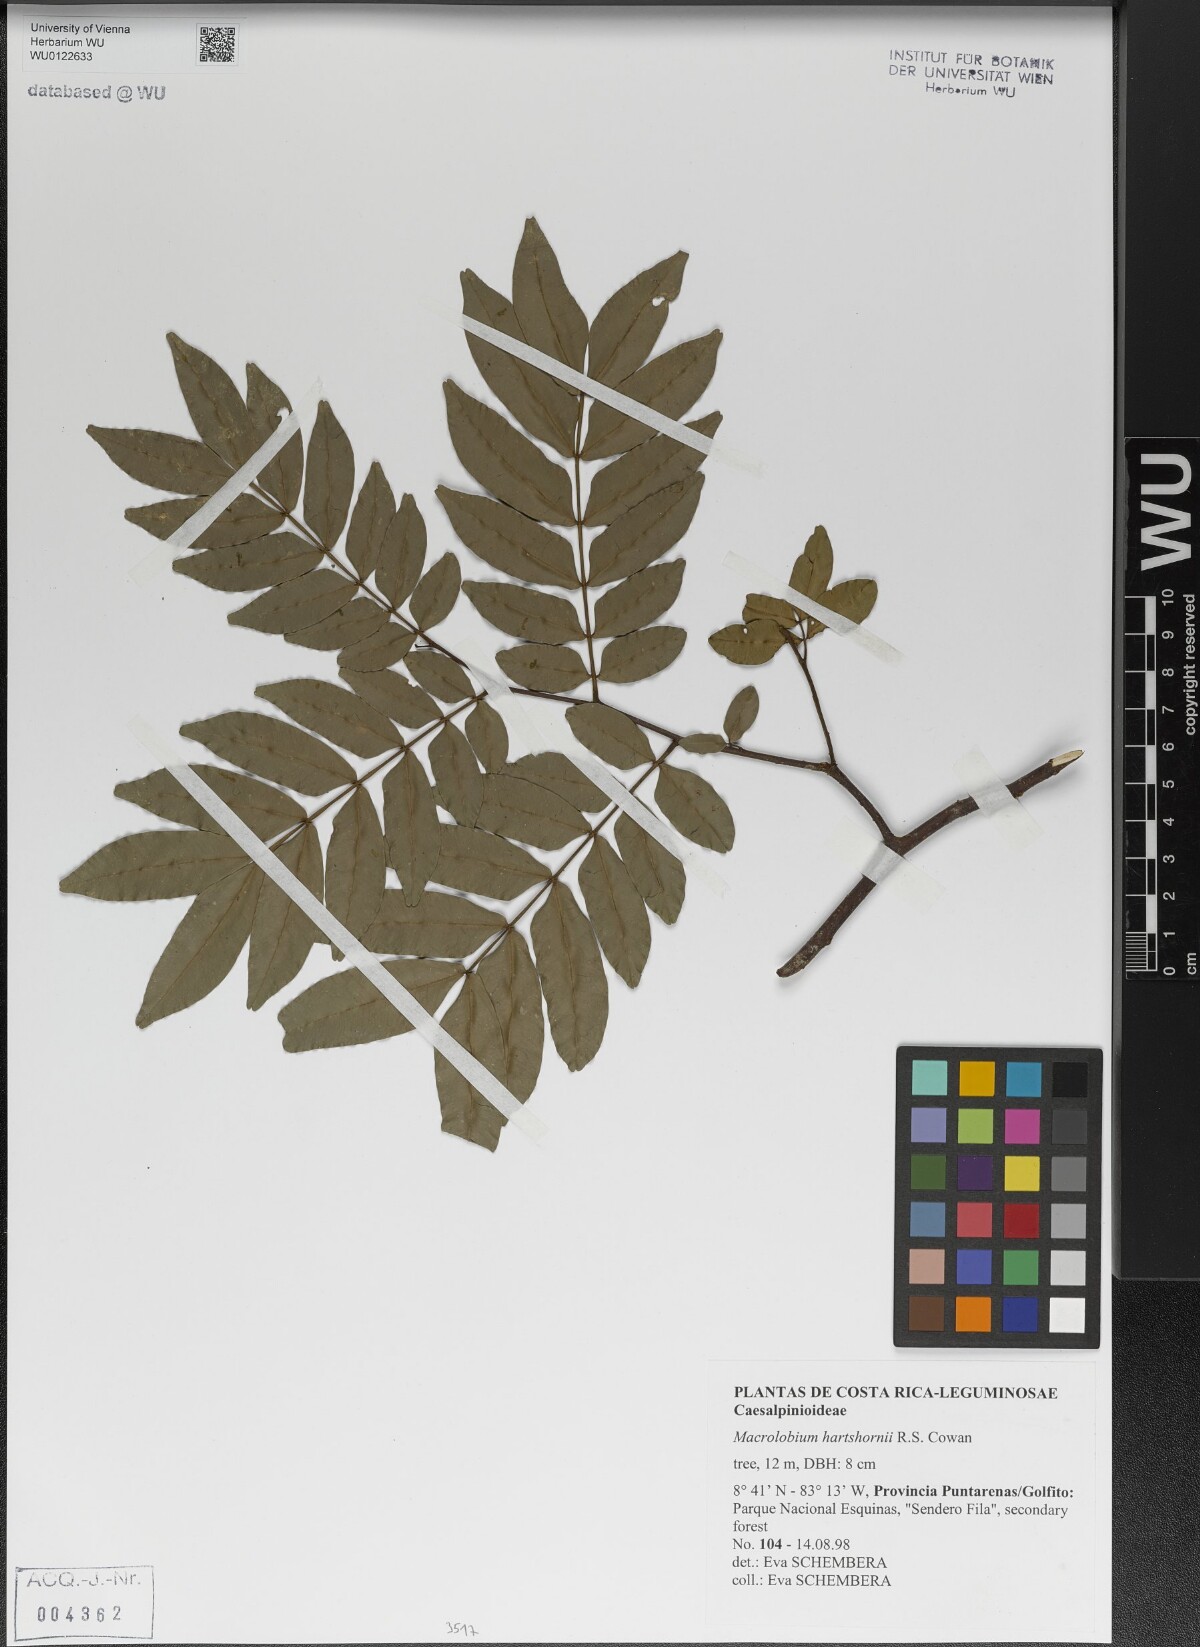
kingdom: Plantae
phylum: Tracheophyta
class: Magnoliopsida
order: Fabales
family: Fabaceae
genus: Macrolobium
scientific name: Macrolobium hartshornii
